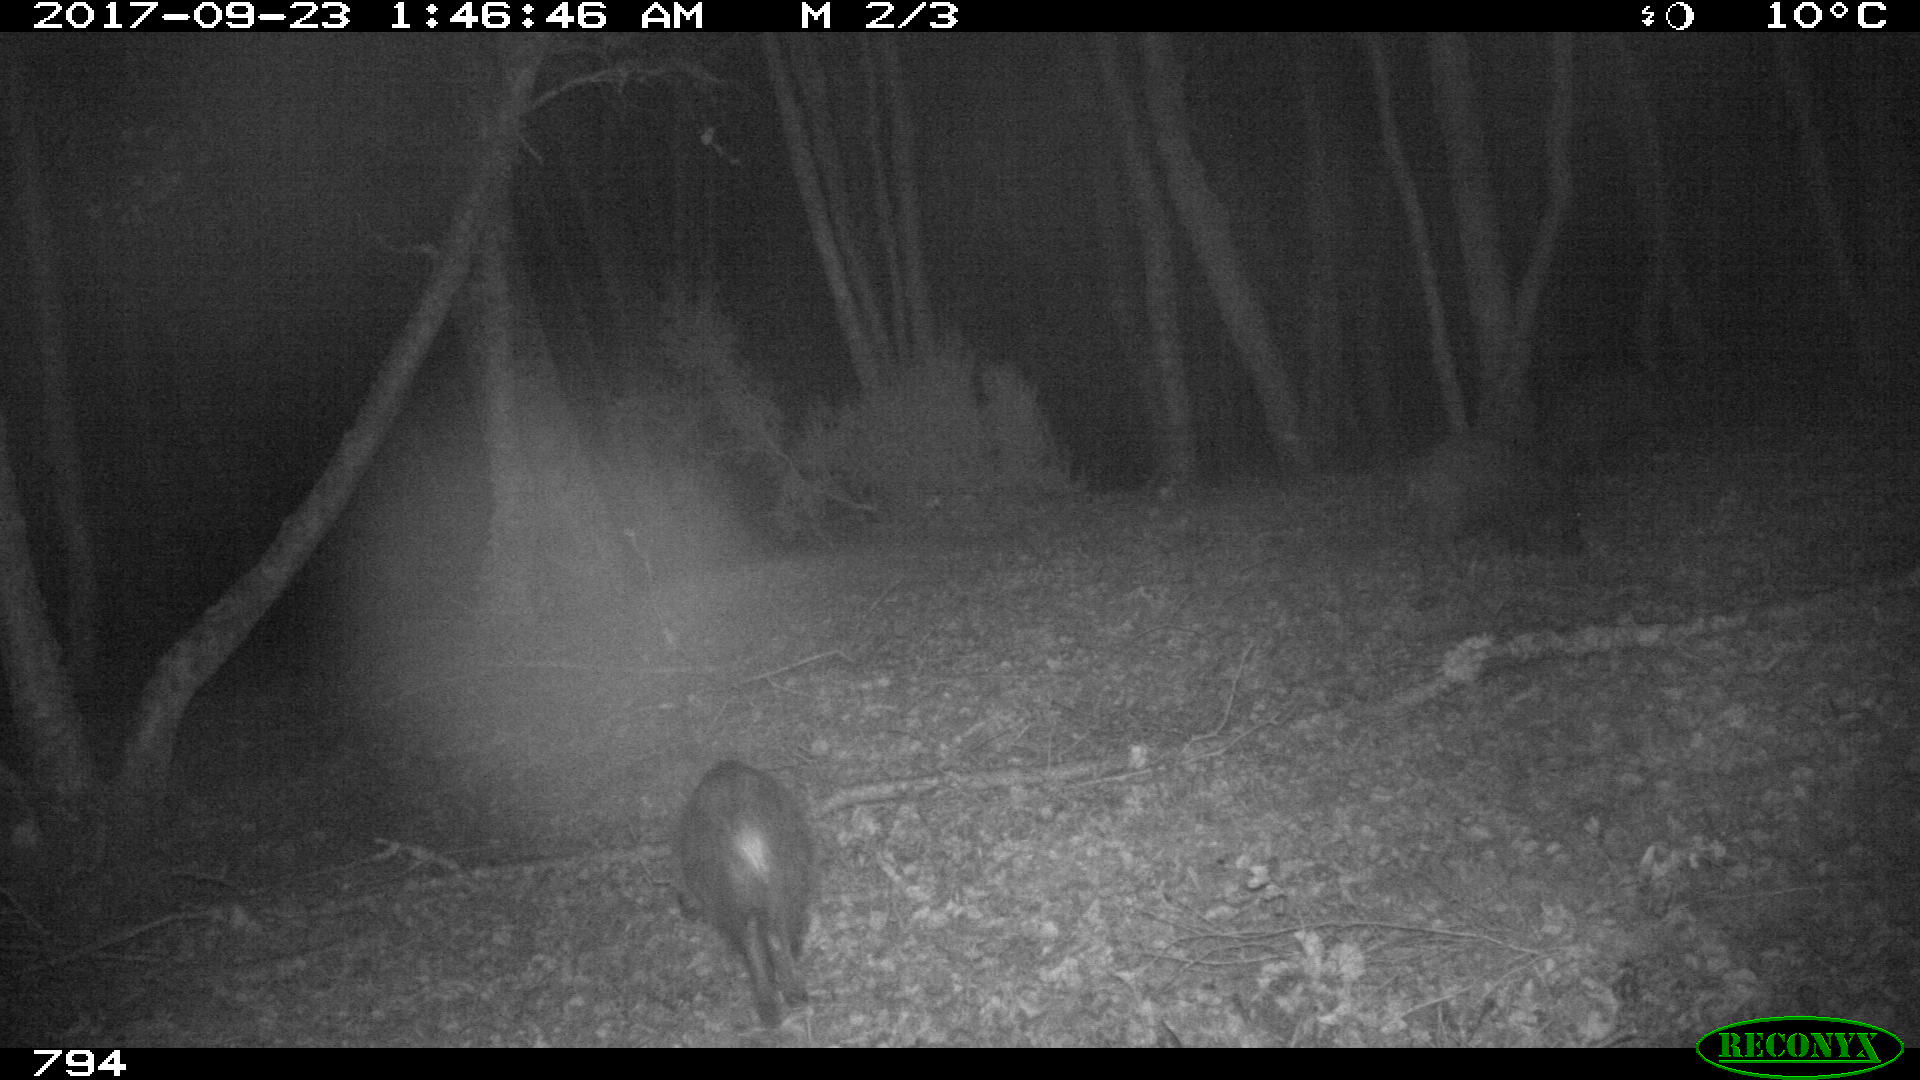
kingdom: Animalia
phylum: Chordata
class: Mammalia
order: Artiodactyla
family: Suidae
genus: Sus
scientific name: Sus scrofa
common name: Wild boar
